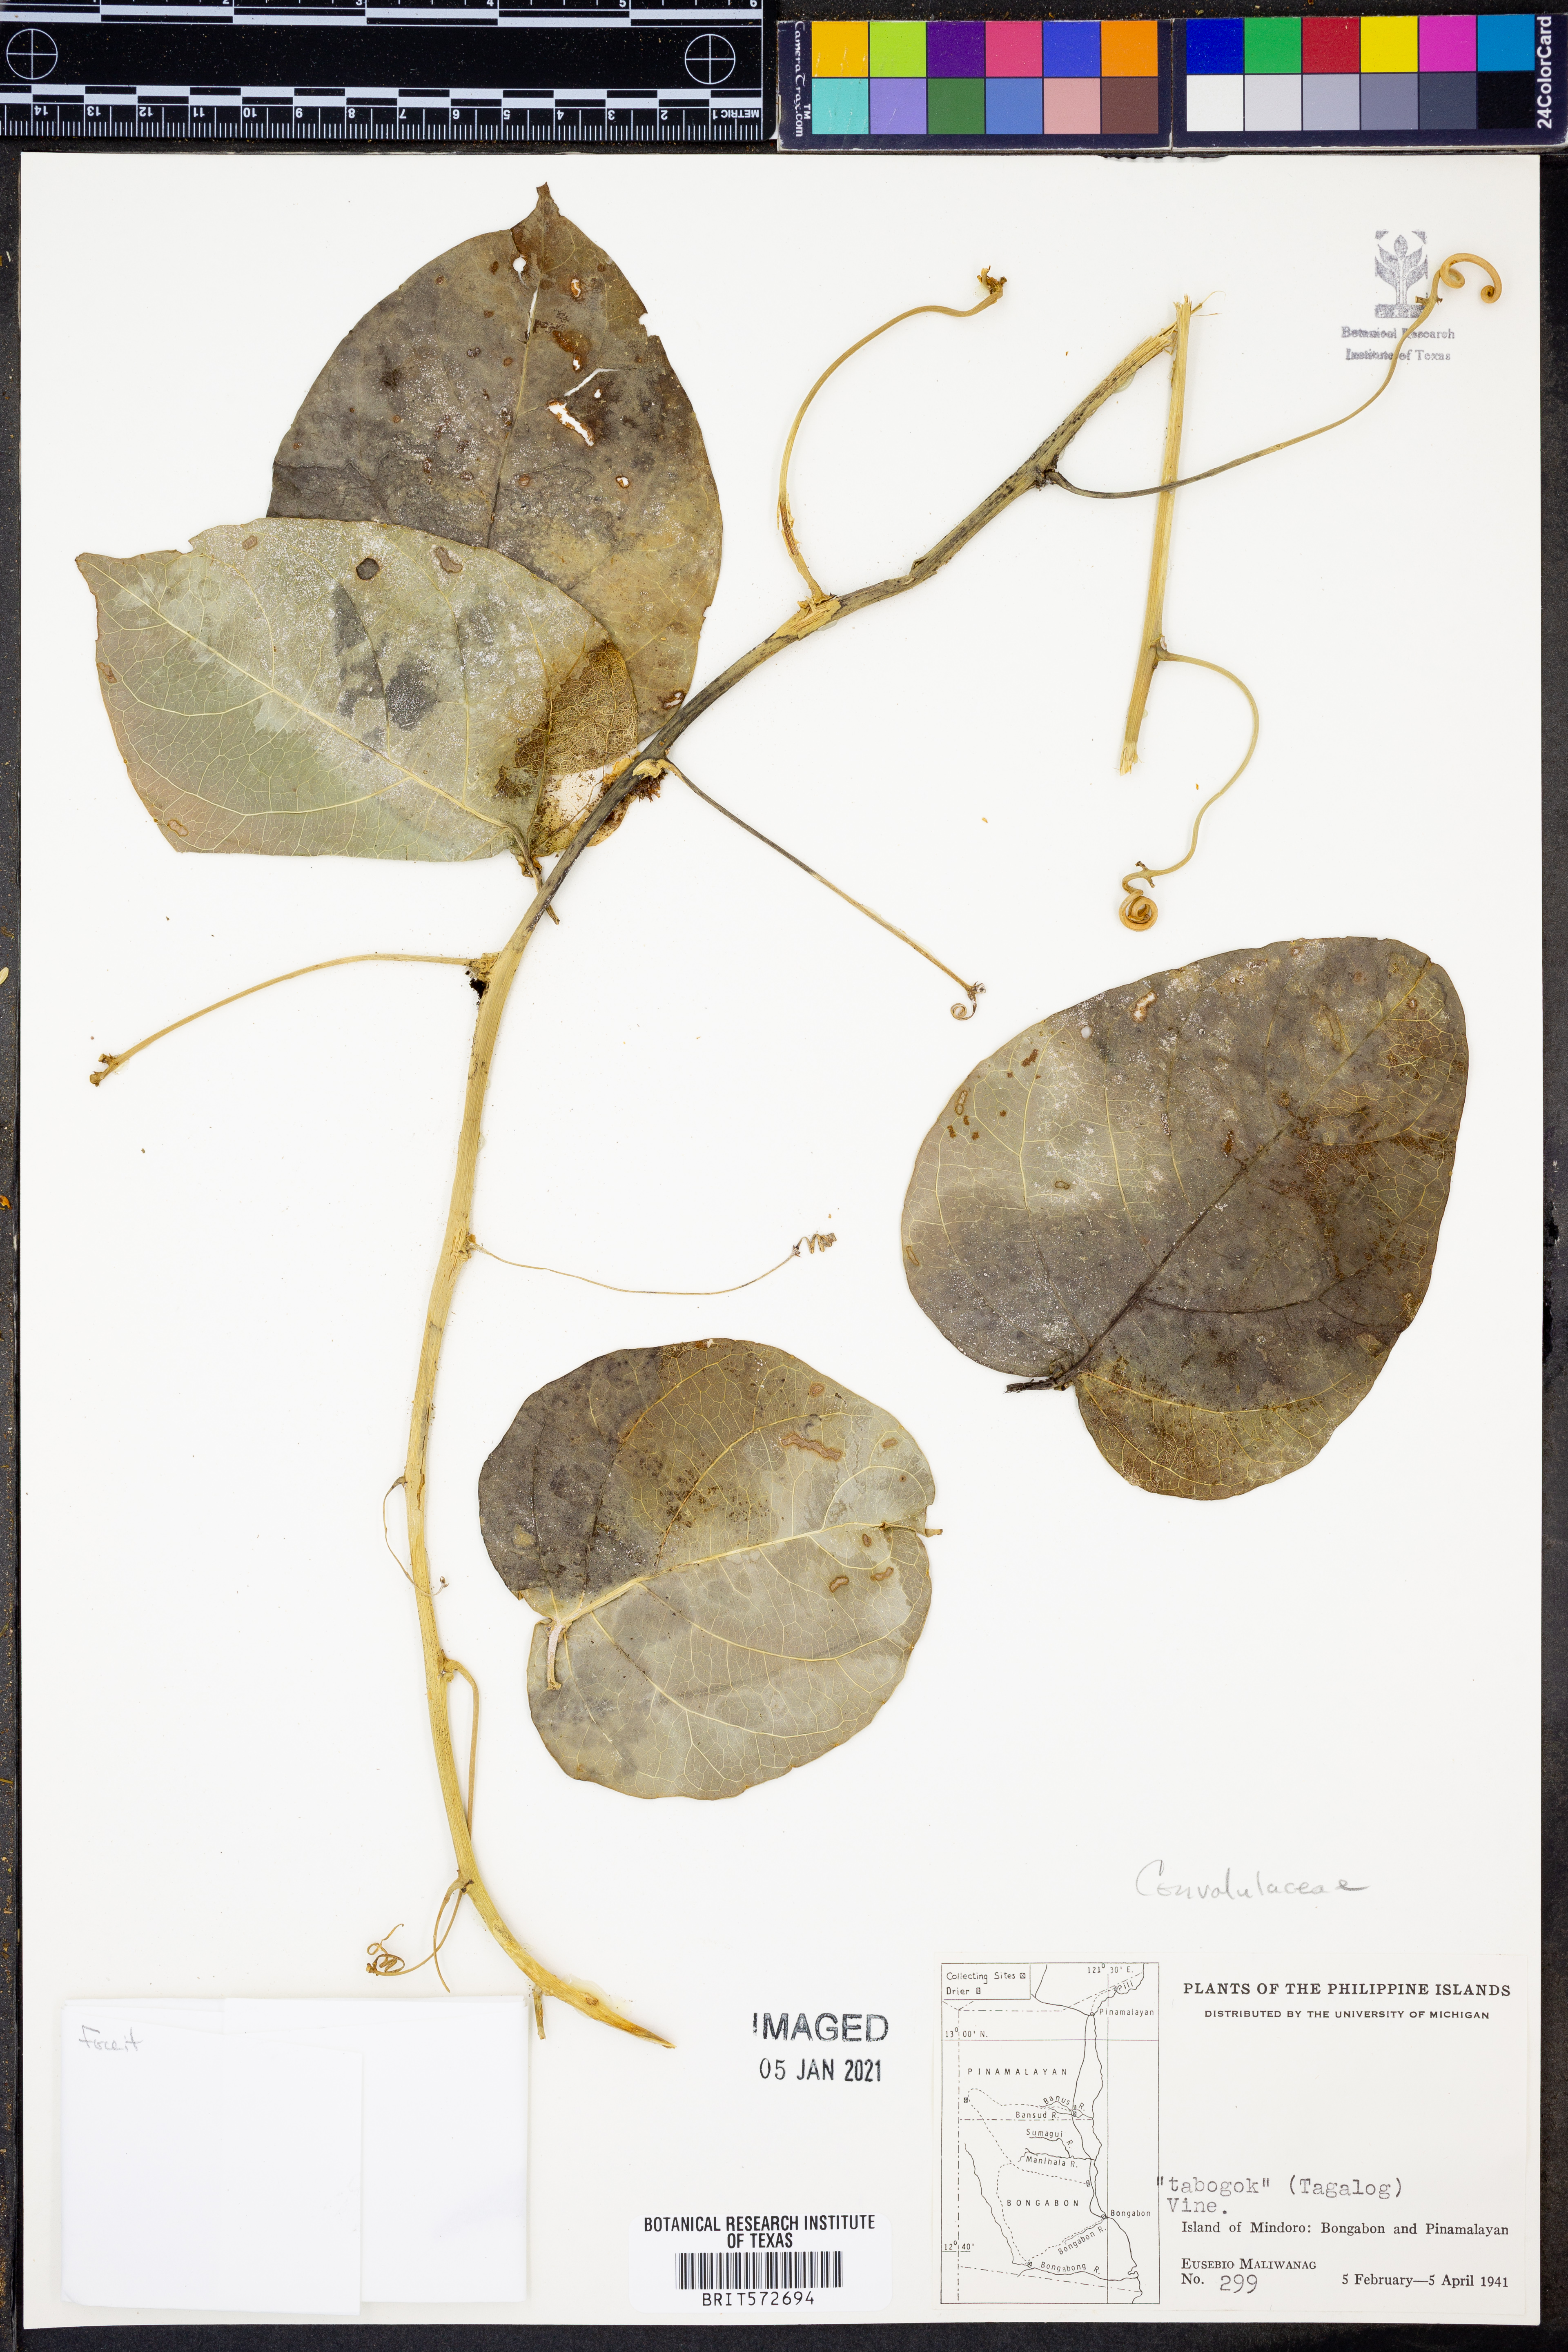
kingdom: Plantae
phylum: Tracheophyta
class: Magnoliopsida
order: Solanales
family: Convolvulaceae
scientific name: Convolvulaceae
